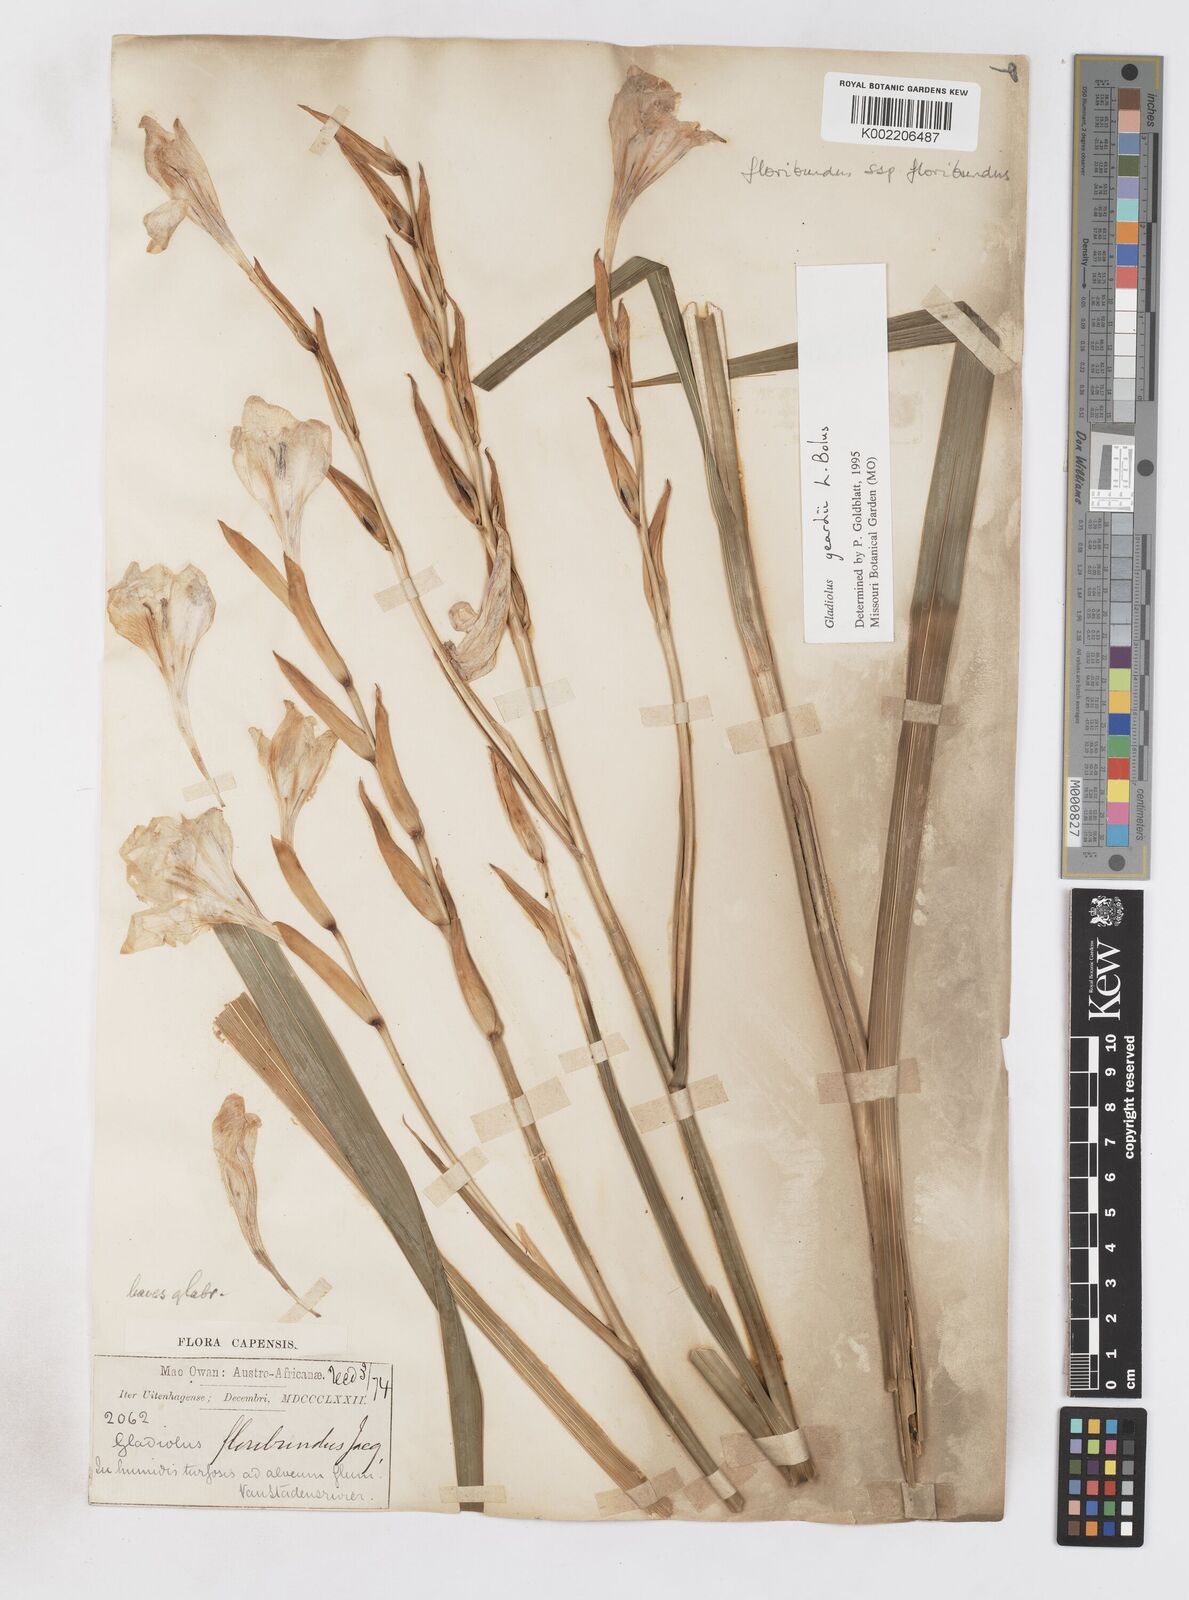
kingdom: Plantae
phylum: Tracheophyta
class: Liliopsida
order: Asparagales
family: Iridaceae
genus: Gladiolus
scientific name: Gladiolus geardii
